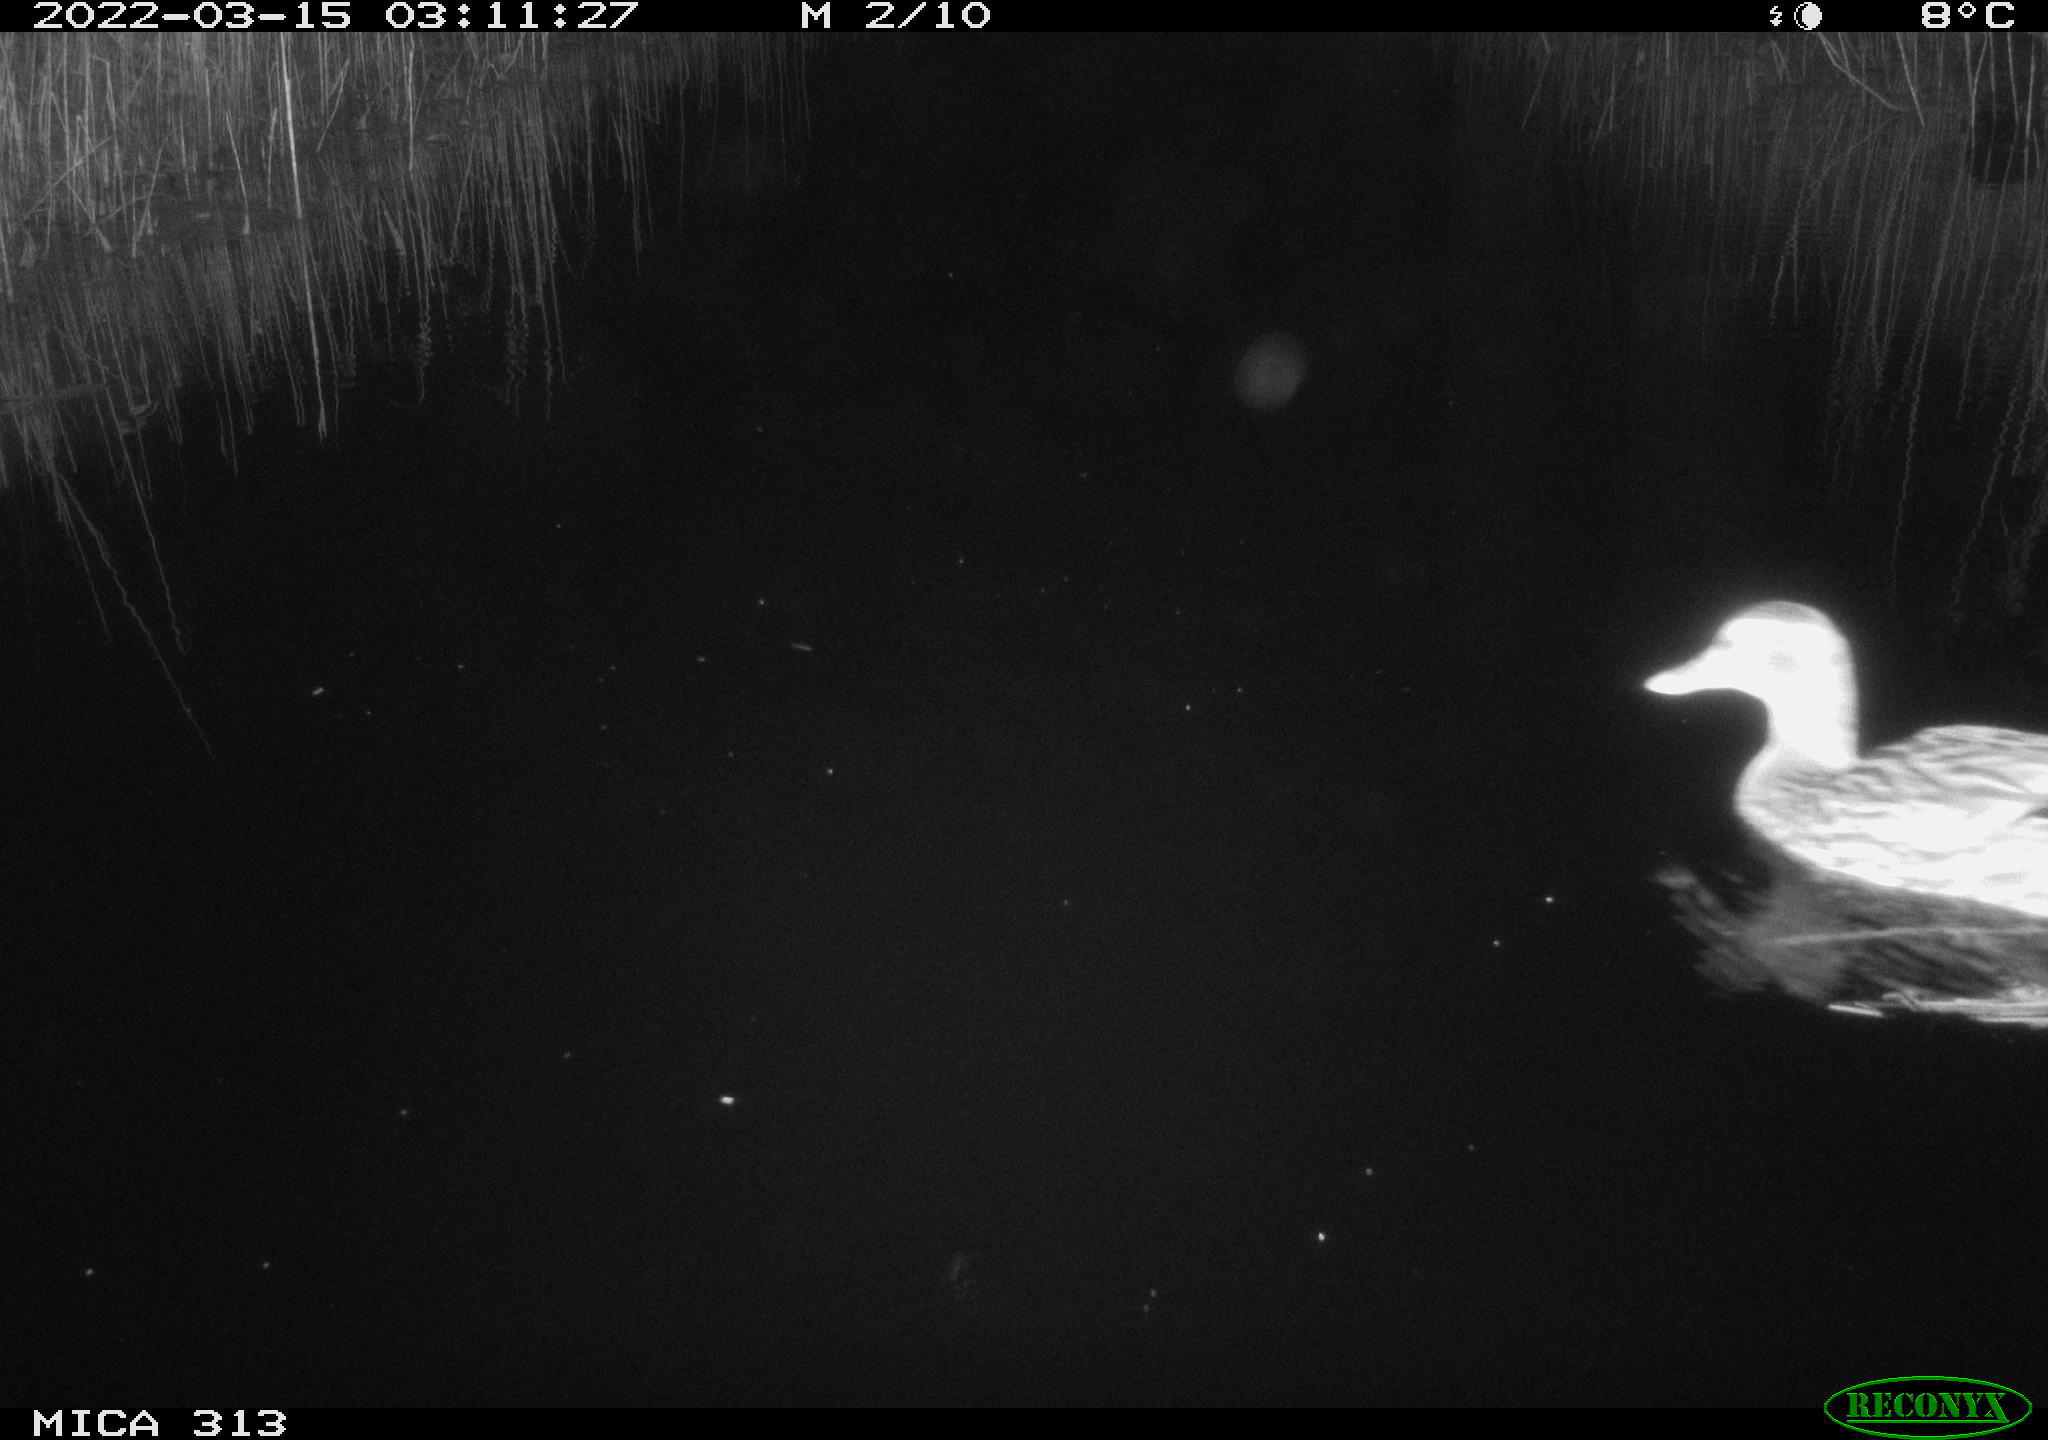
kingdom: Animalia
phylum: Chordata
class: Aves
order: Anseriformes
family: Anatidae
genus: Anas
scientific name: Anas platyrhynchos
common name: Mallard
